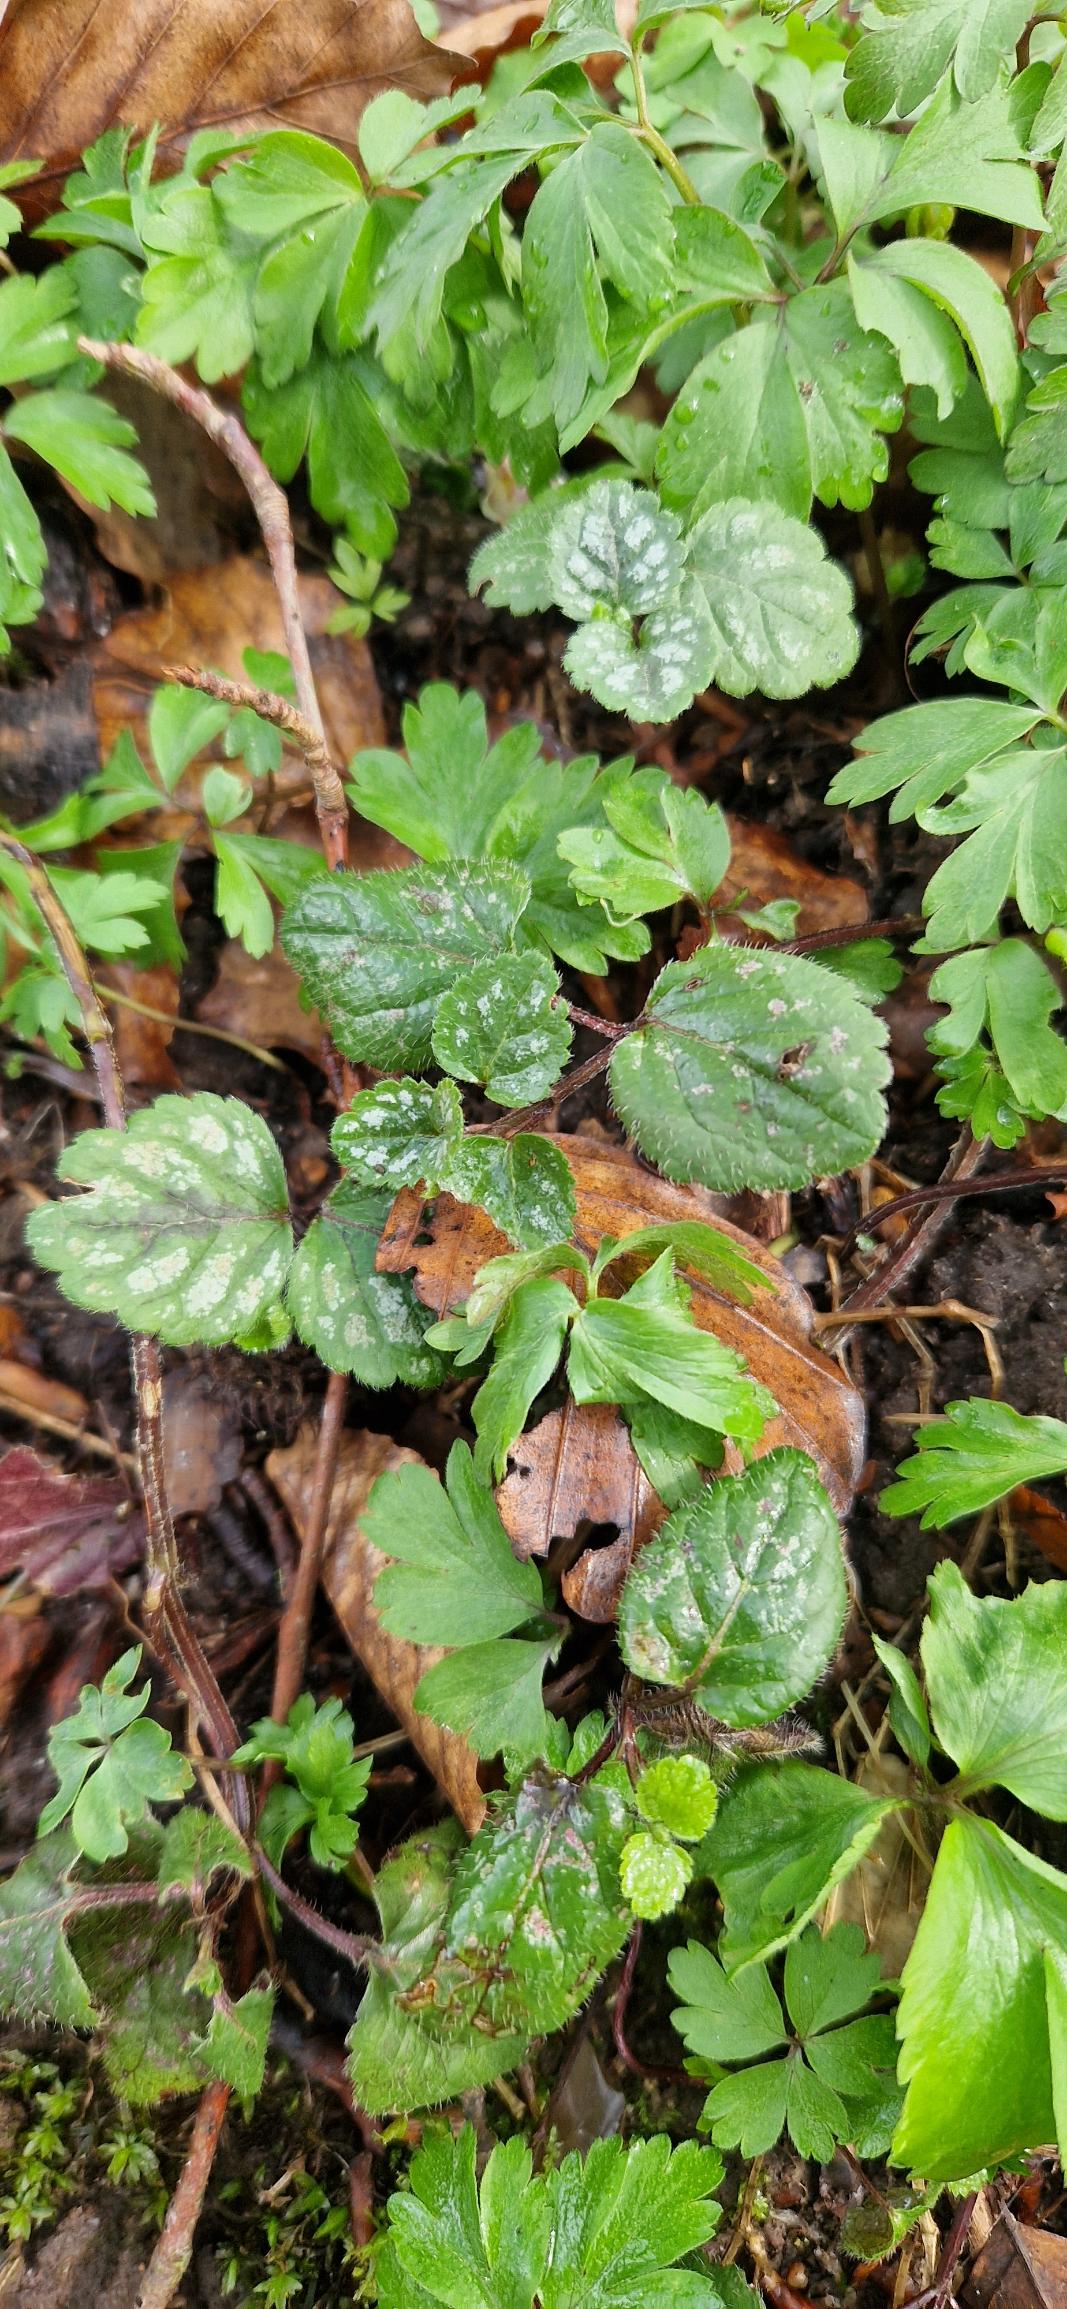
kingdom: Plantae
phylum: Tracheophyta
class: Magnoliopsida
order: Lamiales
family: Lamiaceae
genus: Lamium
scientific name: Lamium galeobdolon
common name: Almindelig guldnælde
